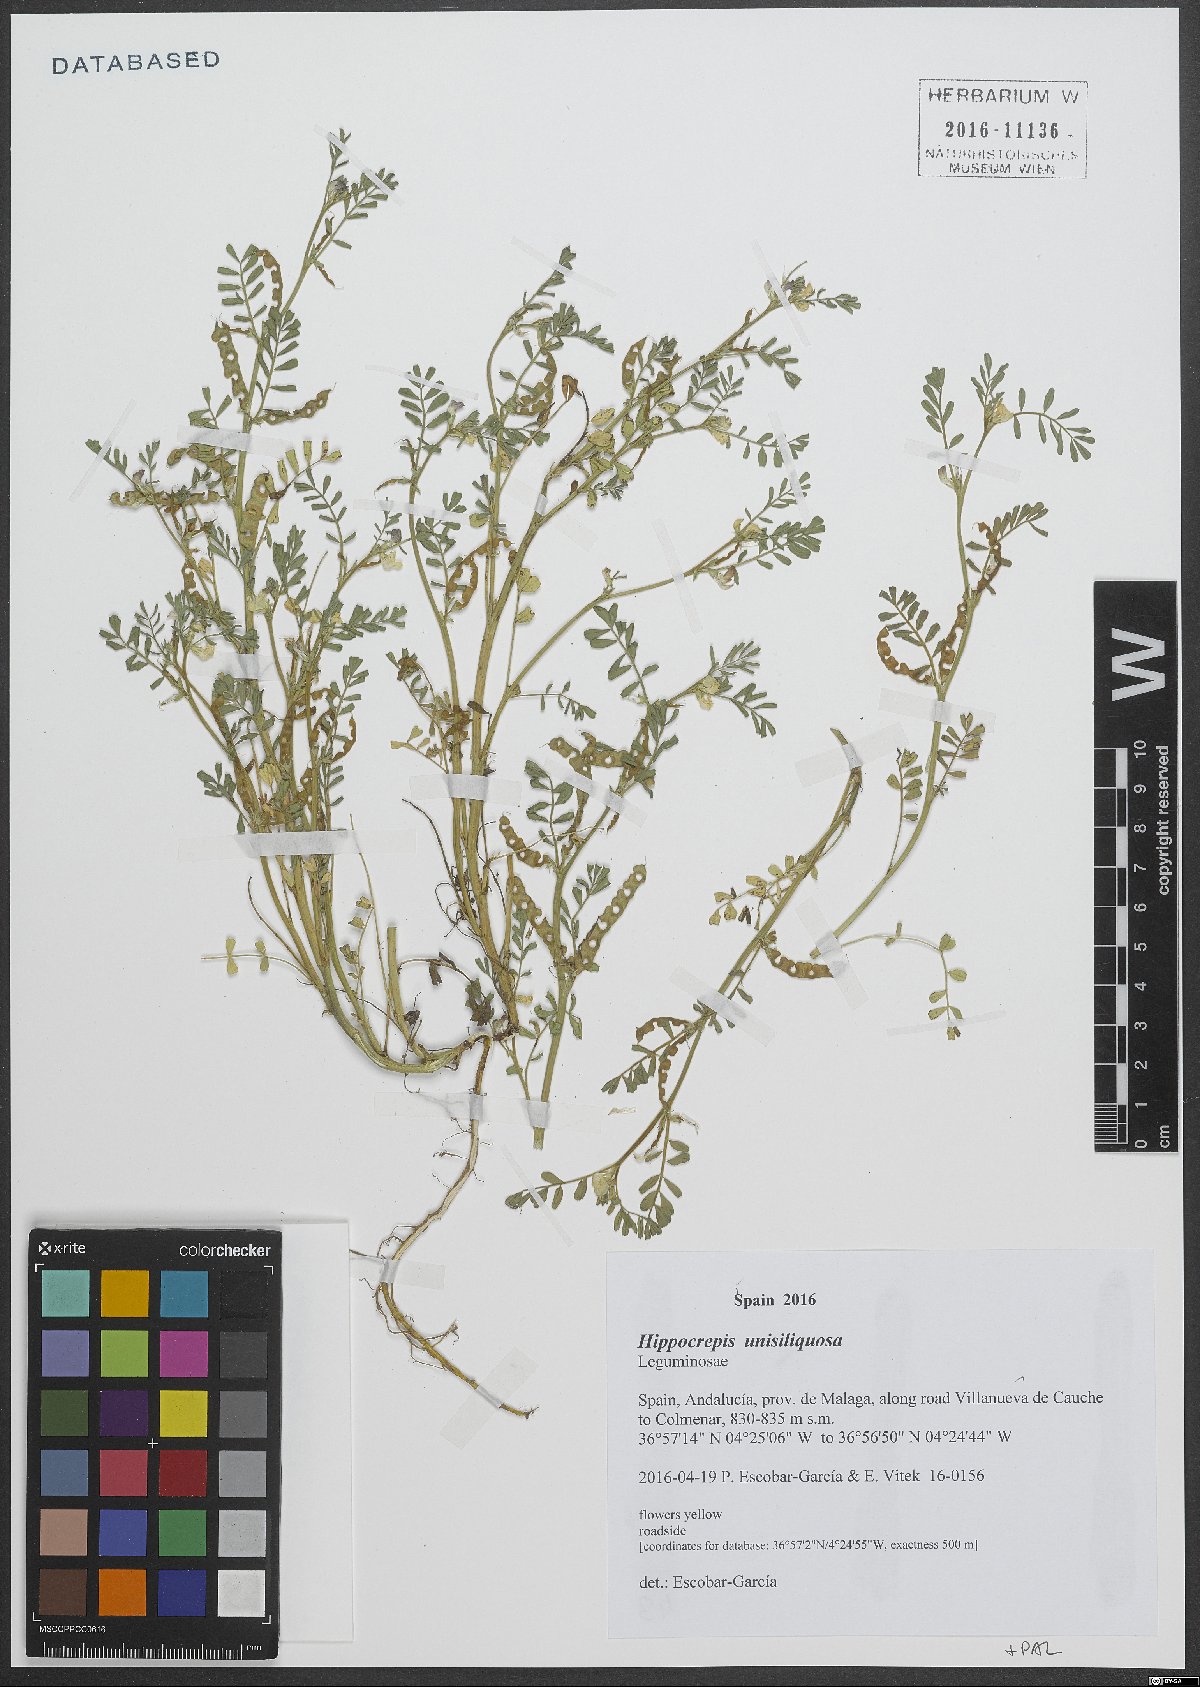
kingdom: Plantae
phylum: Tracheophyta
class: Magnoliopsida
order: Fabales
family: Fabaceae
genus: Hippocrepis
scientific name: Hippocrepis unisiliquosa
